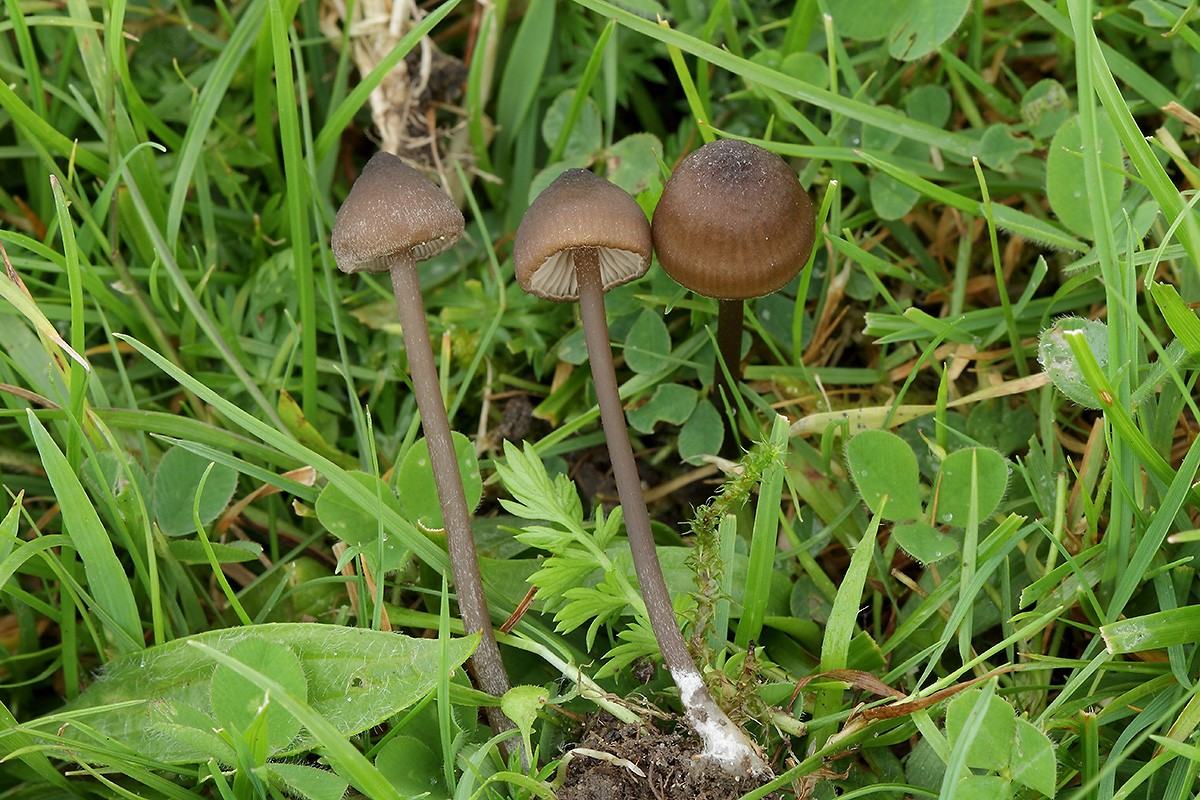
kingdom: Fungi
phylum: Basidiomycota
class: Agaricomycetes
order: Agaricales
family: Entolomataceae
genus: Entoloma
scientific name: Entoloma clandestinum
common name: tykbladet rødblad
